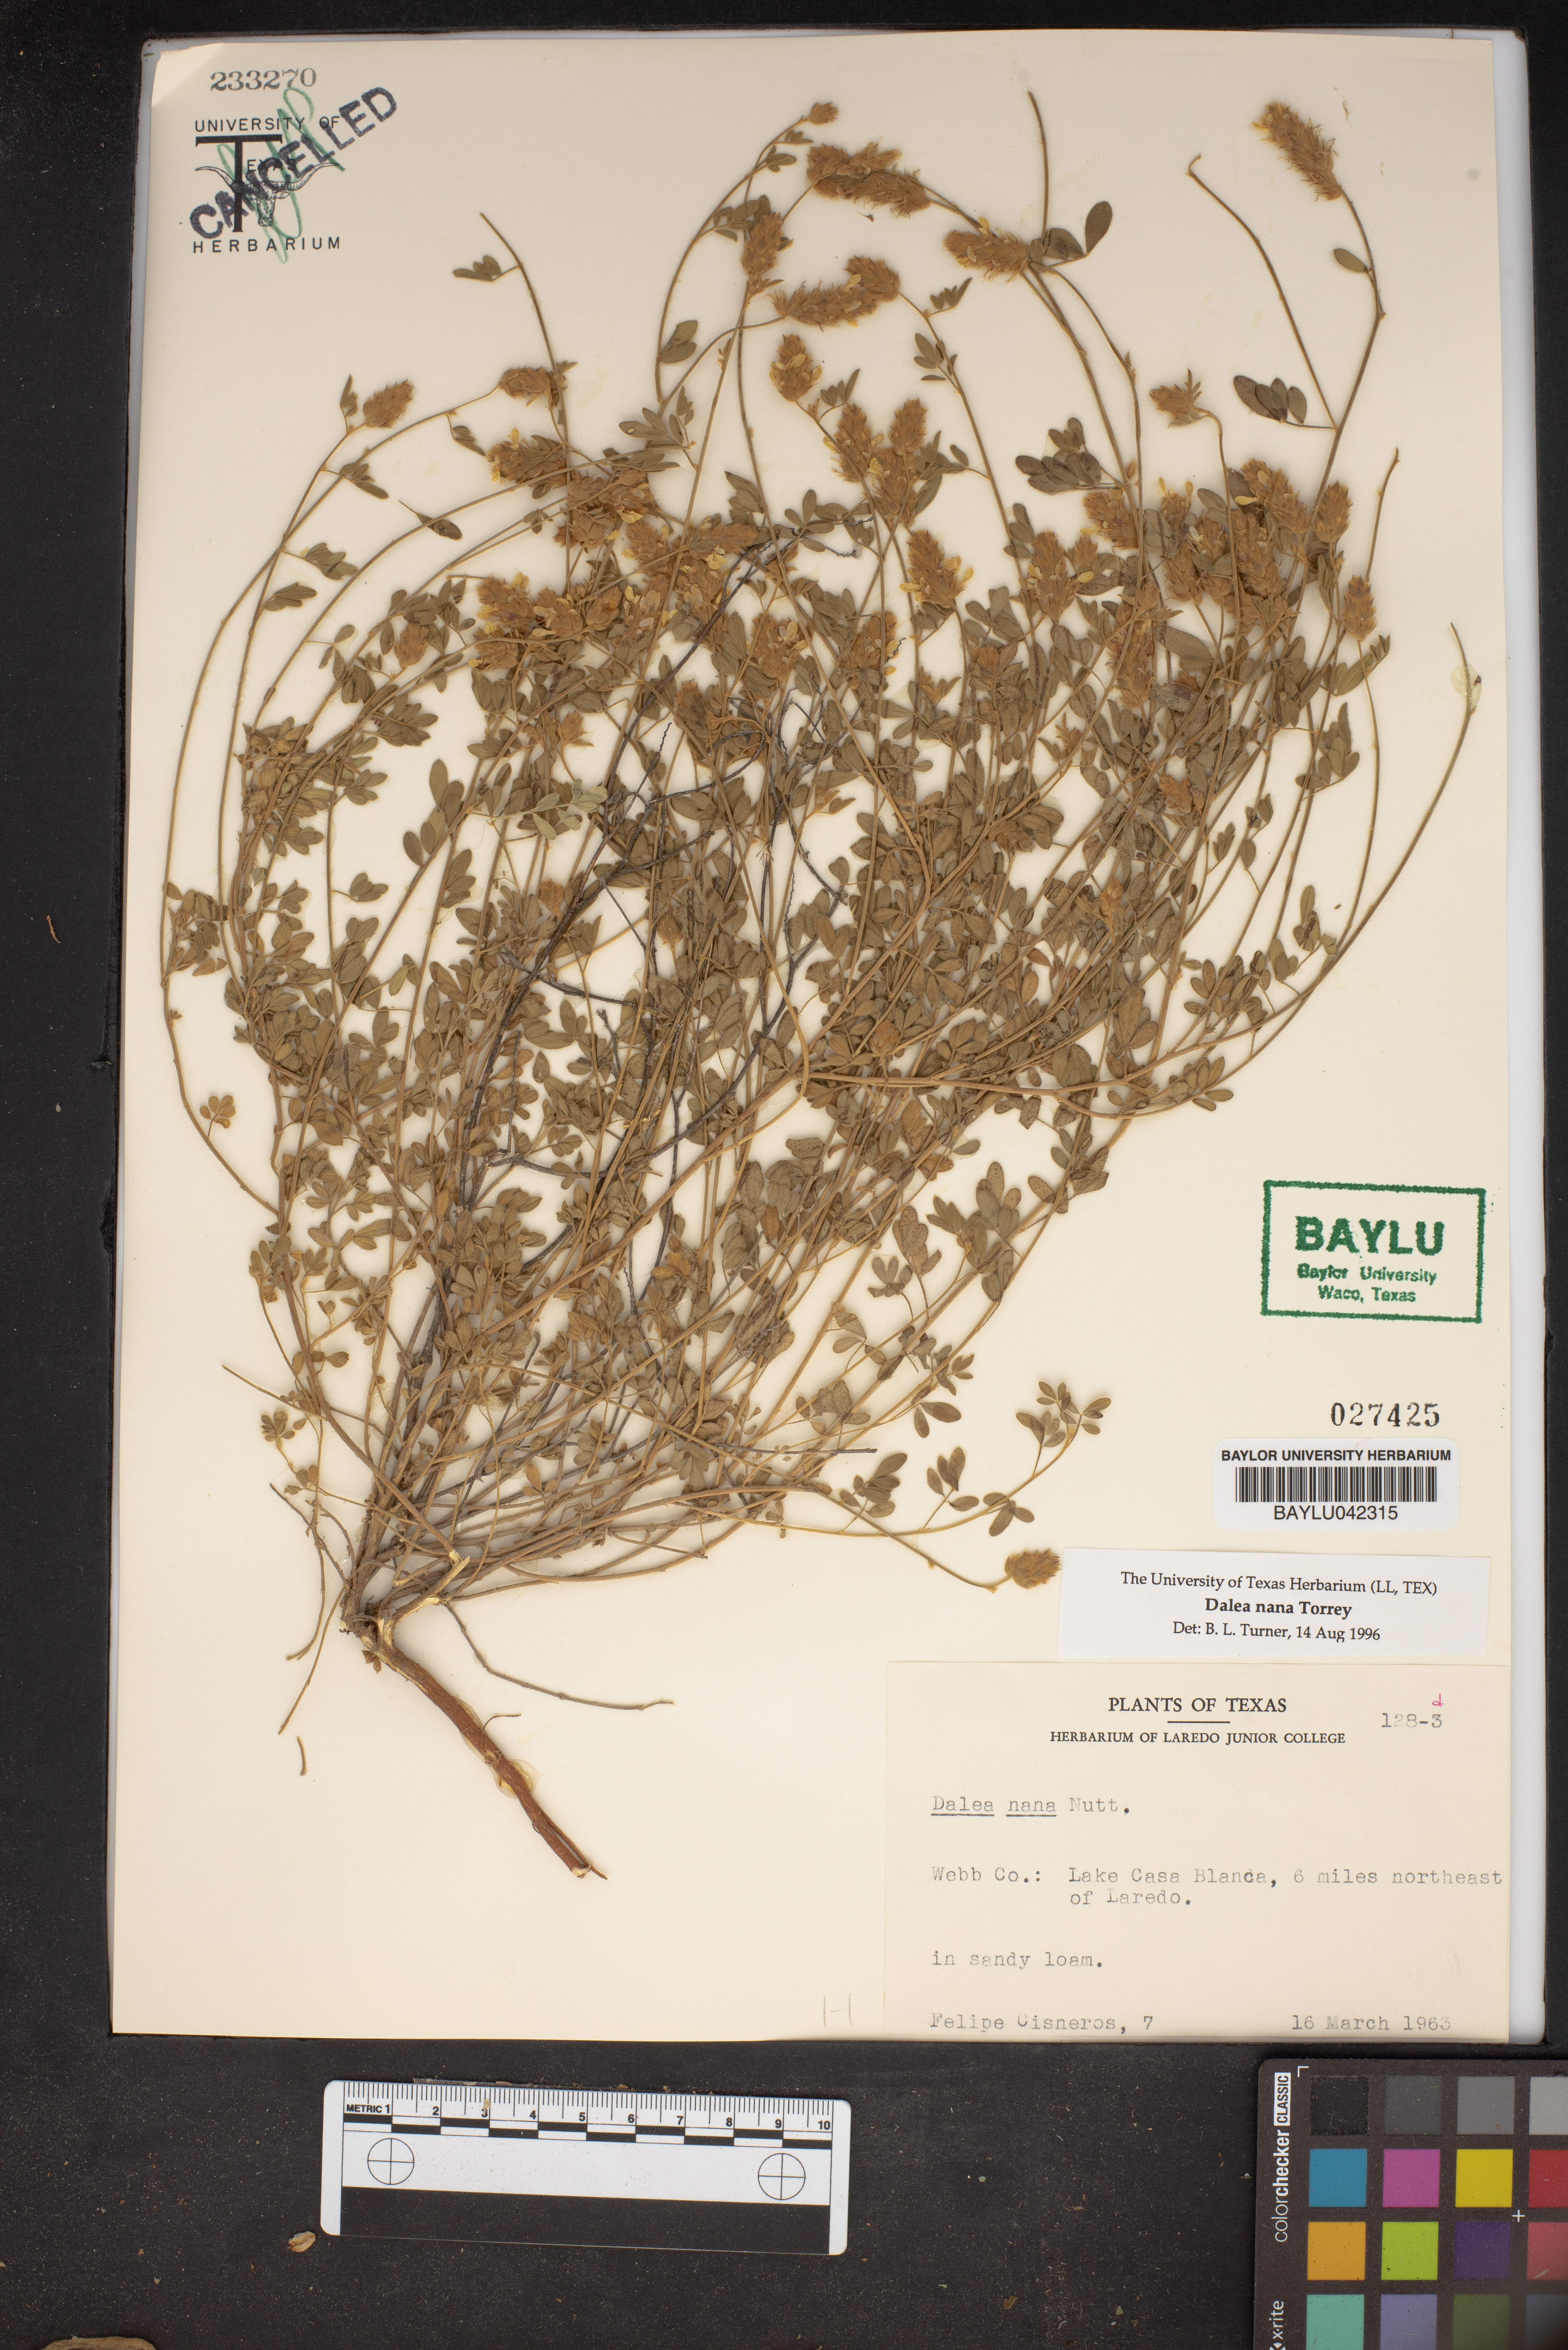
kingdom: Plantae
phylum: Tracheophyta
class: Magnoliopsida
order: Fabales
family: Fabaceae
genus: Dalea
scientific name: Dalea nana
